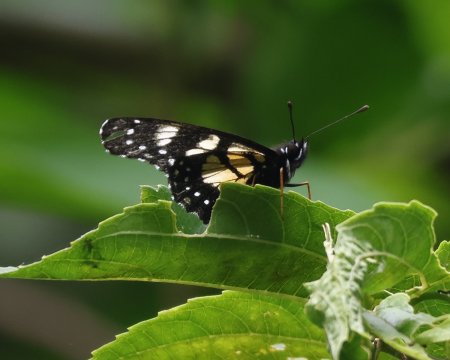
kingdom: Animalia
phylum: Arthropoda
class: Insecta
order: Lepidoptera
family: Nymphalidae
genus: Chlosyne
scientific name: Chlosyne narva
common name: Narva Checkerspot
